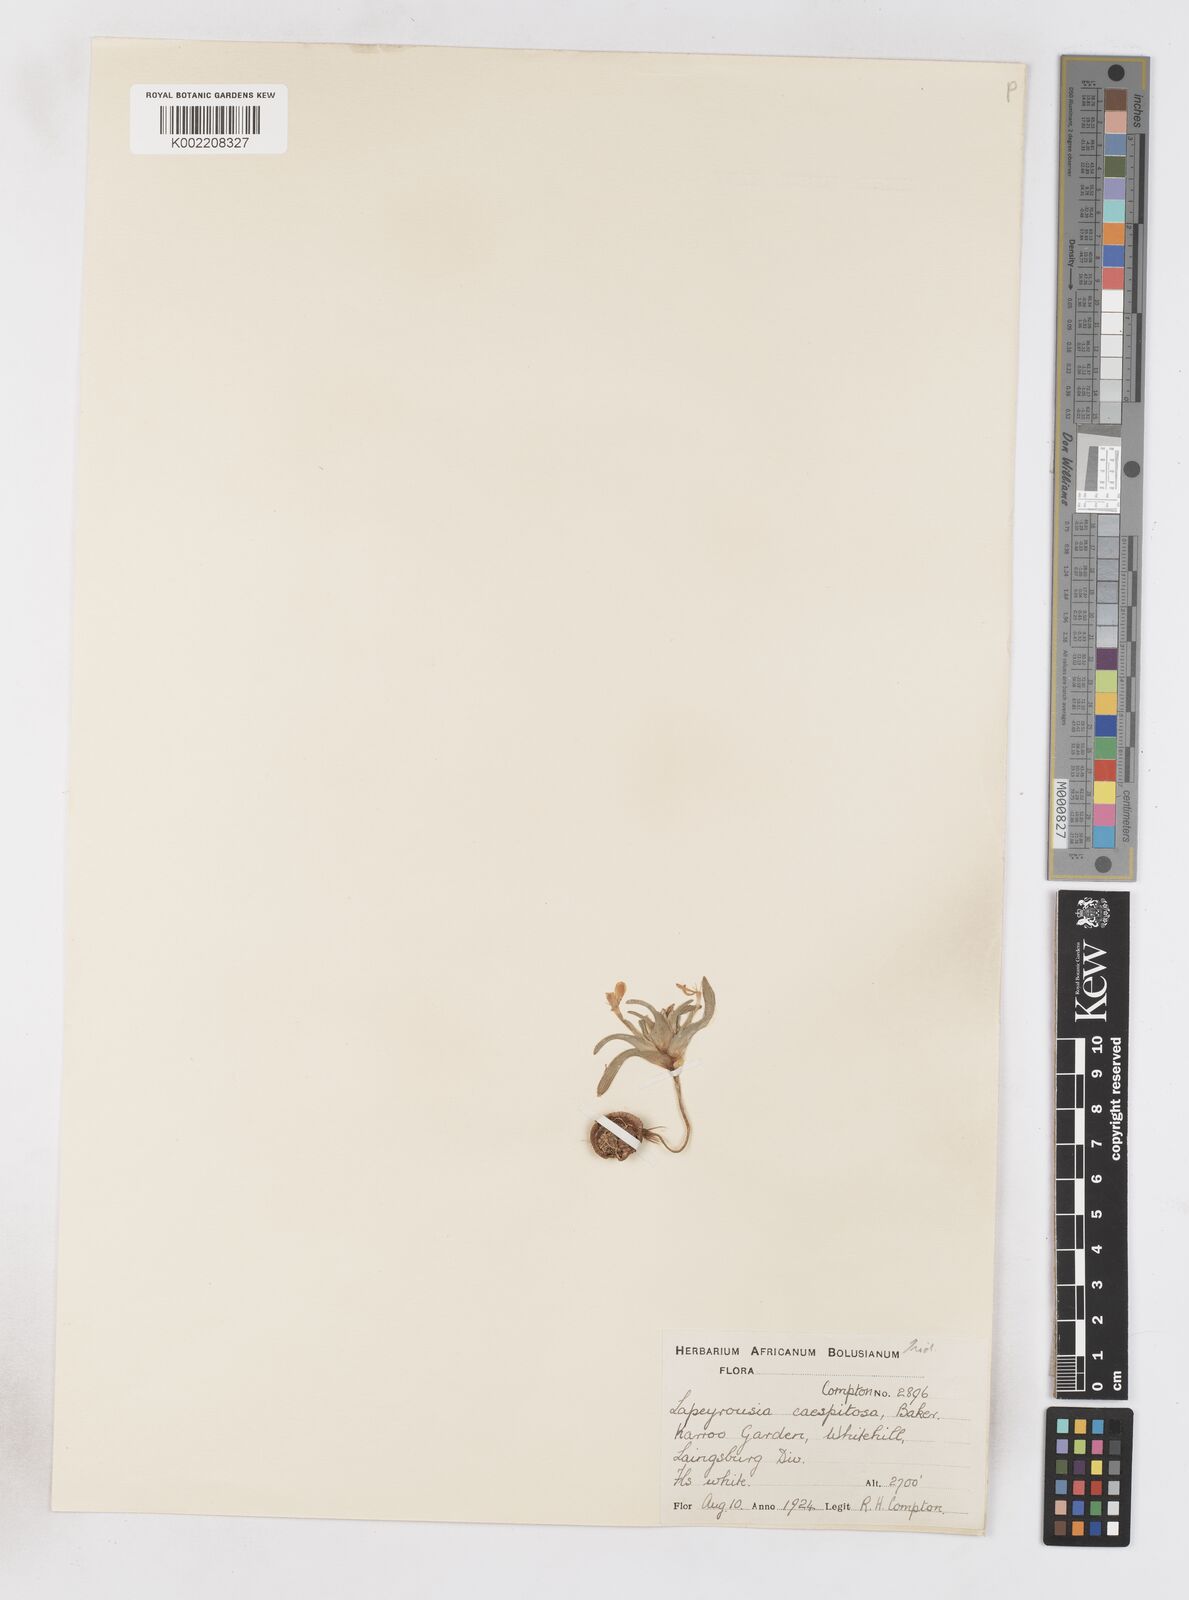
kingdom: Plantae
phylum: Tracheophyta
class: Liliopsida
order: Asparagales
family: Iridaceae
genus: Lapeirousia
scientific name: Lapeirousia plicata
